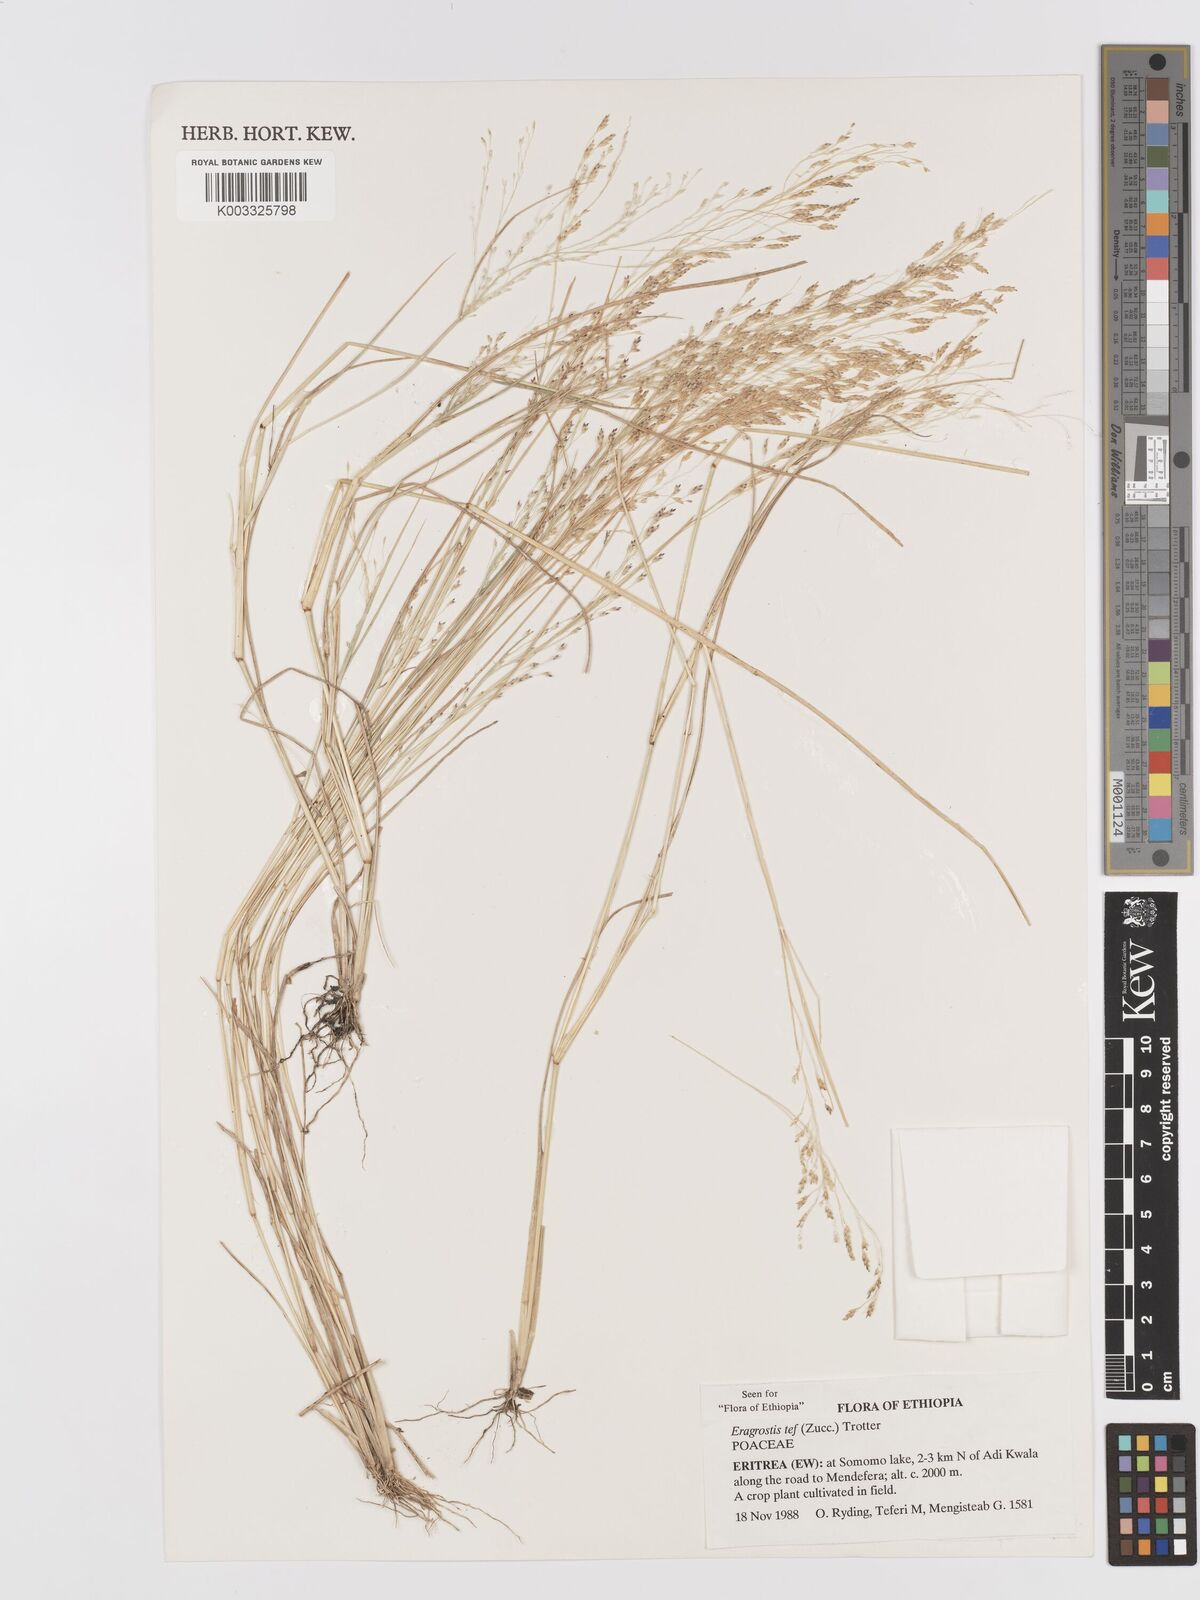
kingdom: Plantae
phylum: Tracheophyta
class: Liliopsida
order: Poales
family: Poaceae
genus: Eragrostis
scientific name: Eragrostis tef
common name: Teff
